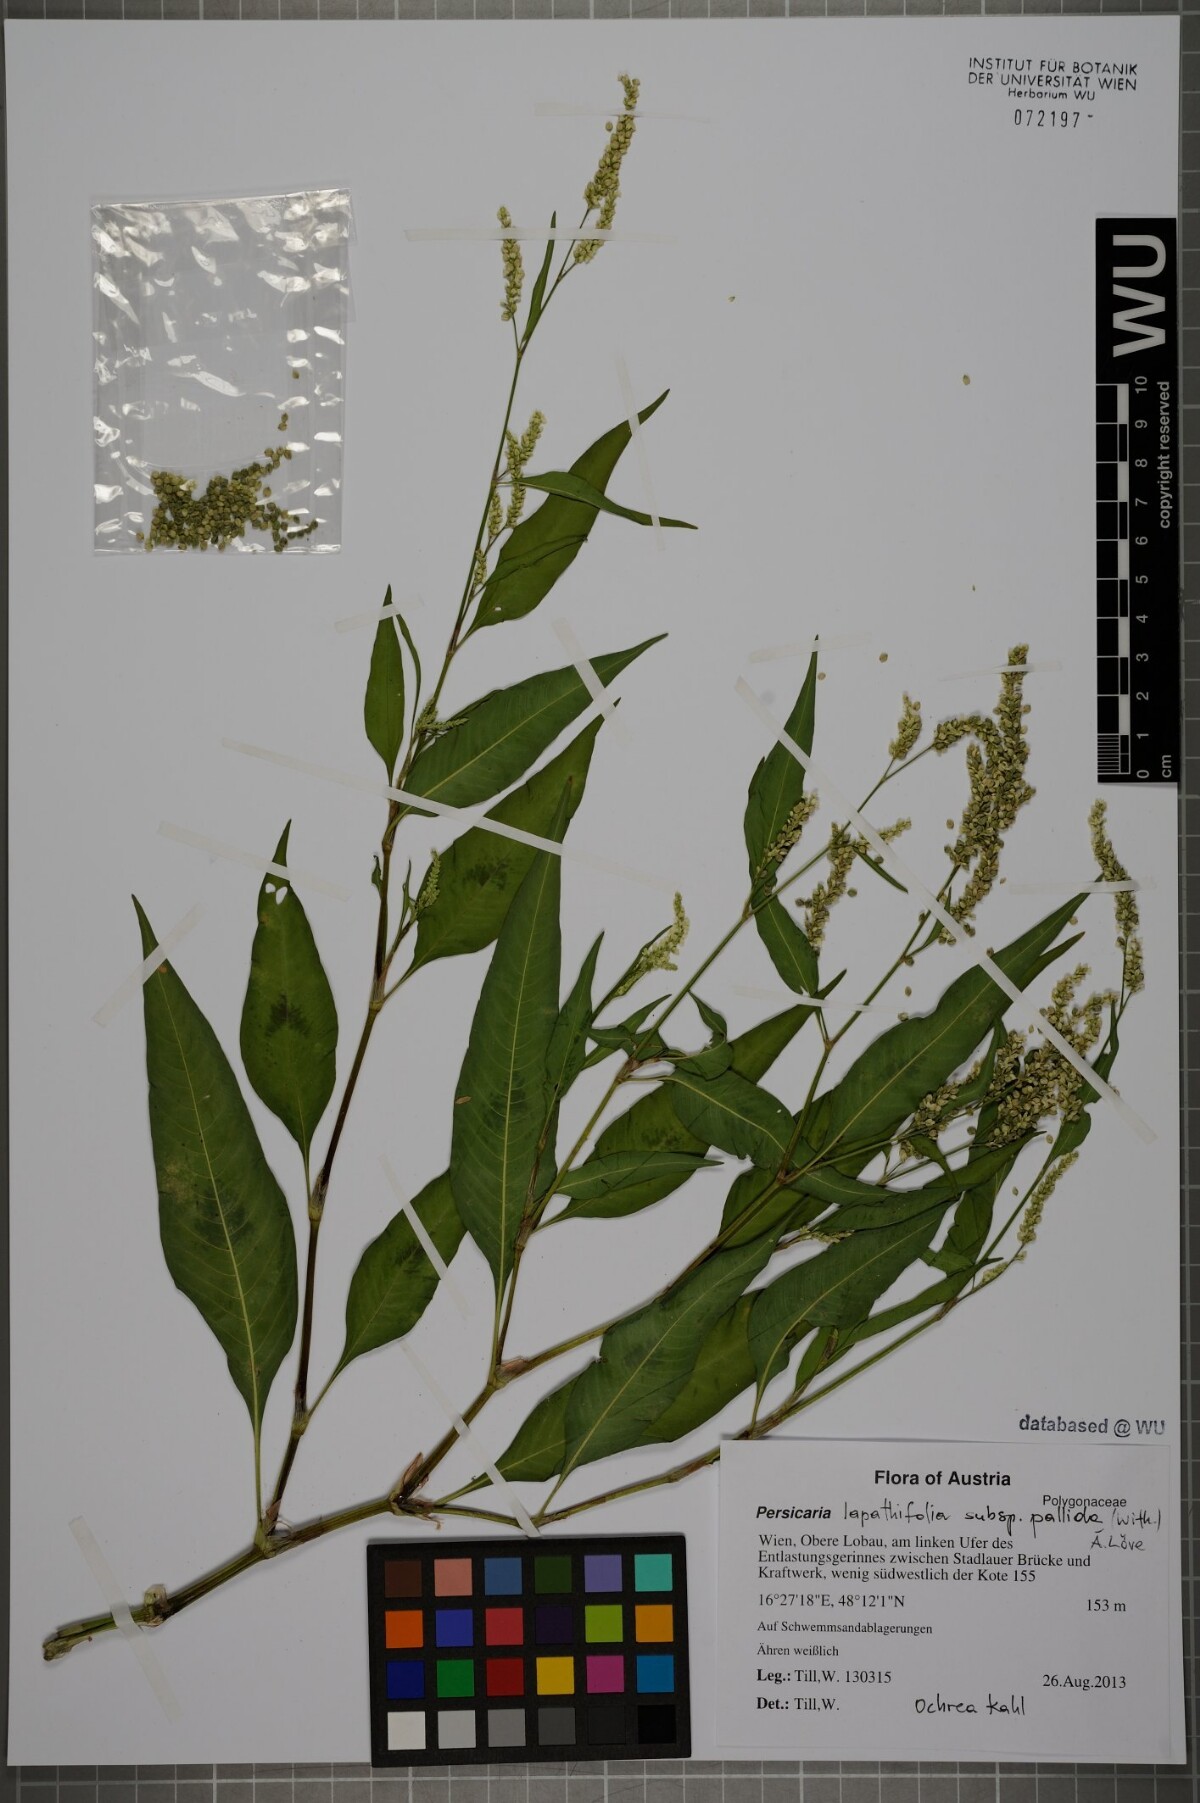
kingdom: Plantae
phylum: Tracheophyta
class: Magnoliopsida
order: Caryophyllales
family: Polygonaceae
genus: Persicaria
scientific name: Persicaria lapathifolia
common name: Curlytop knotweed
